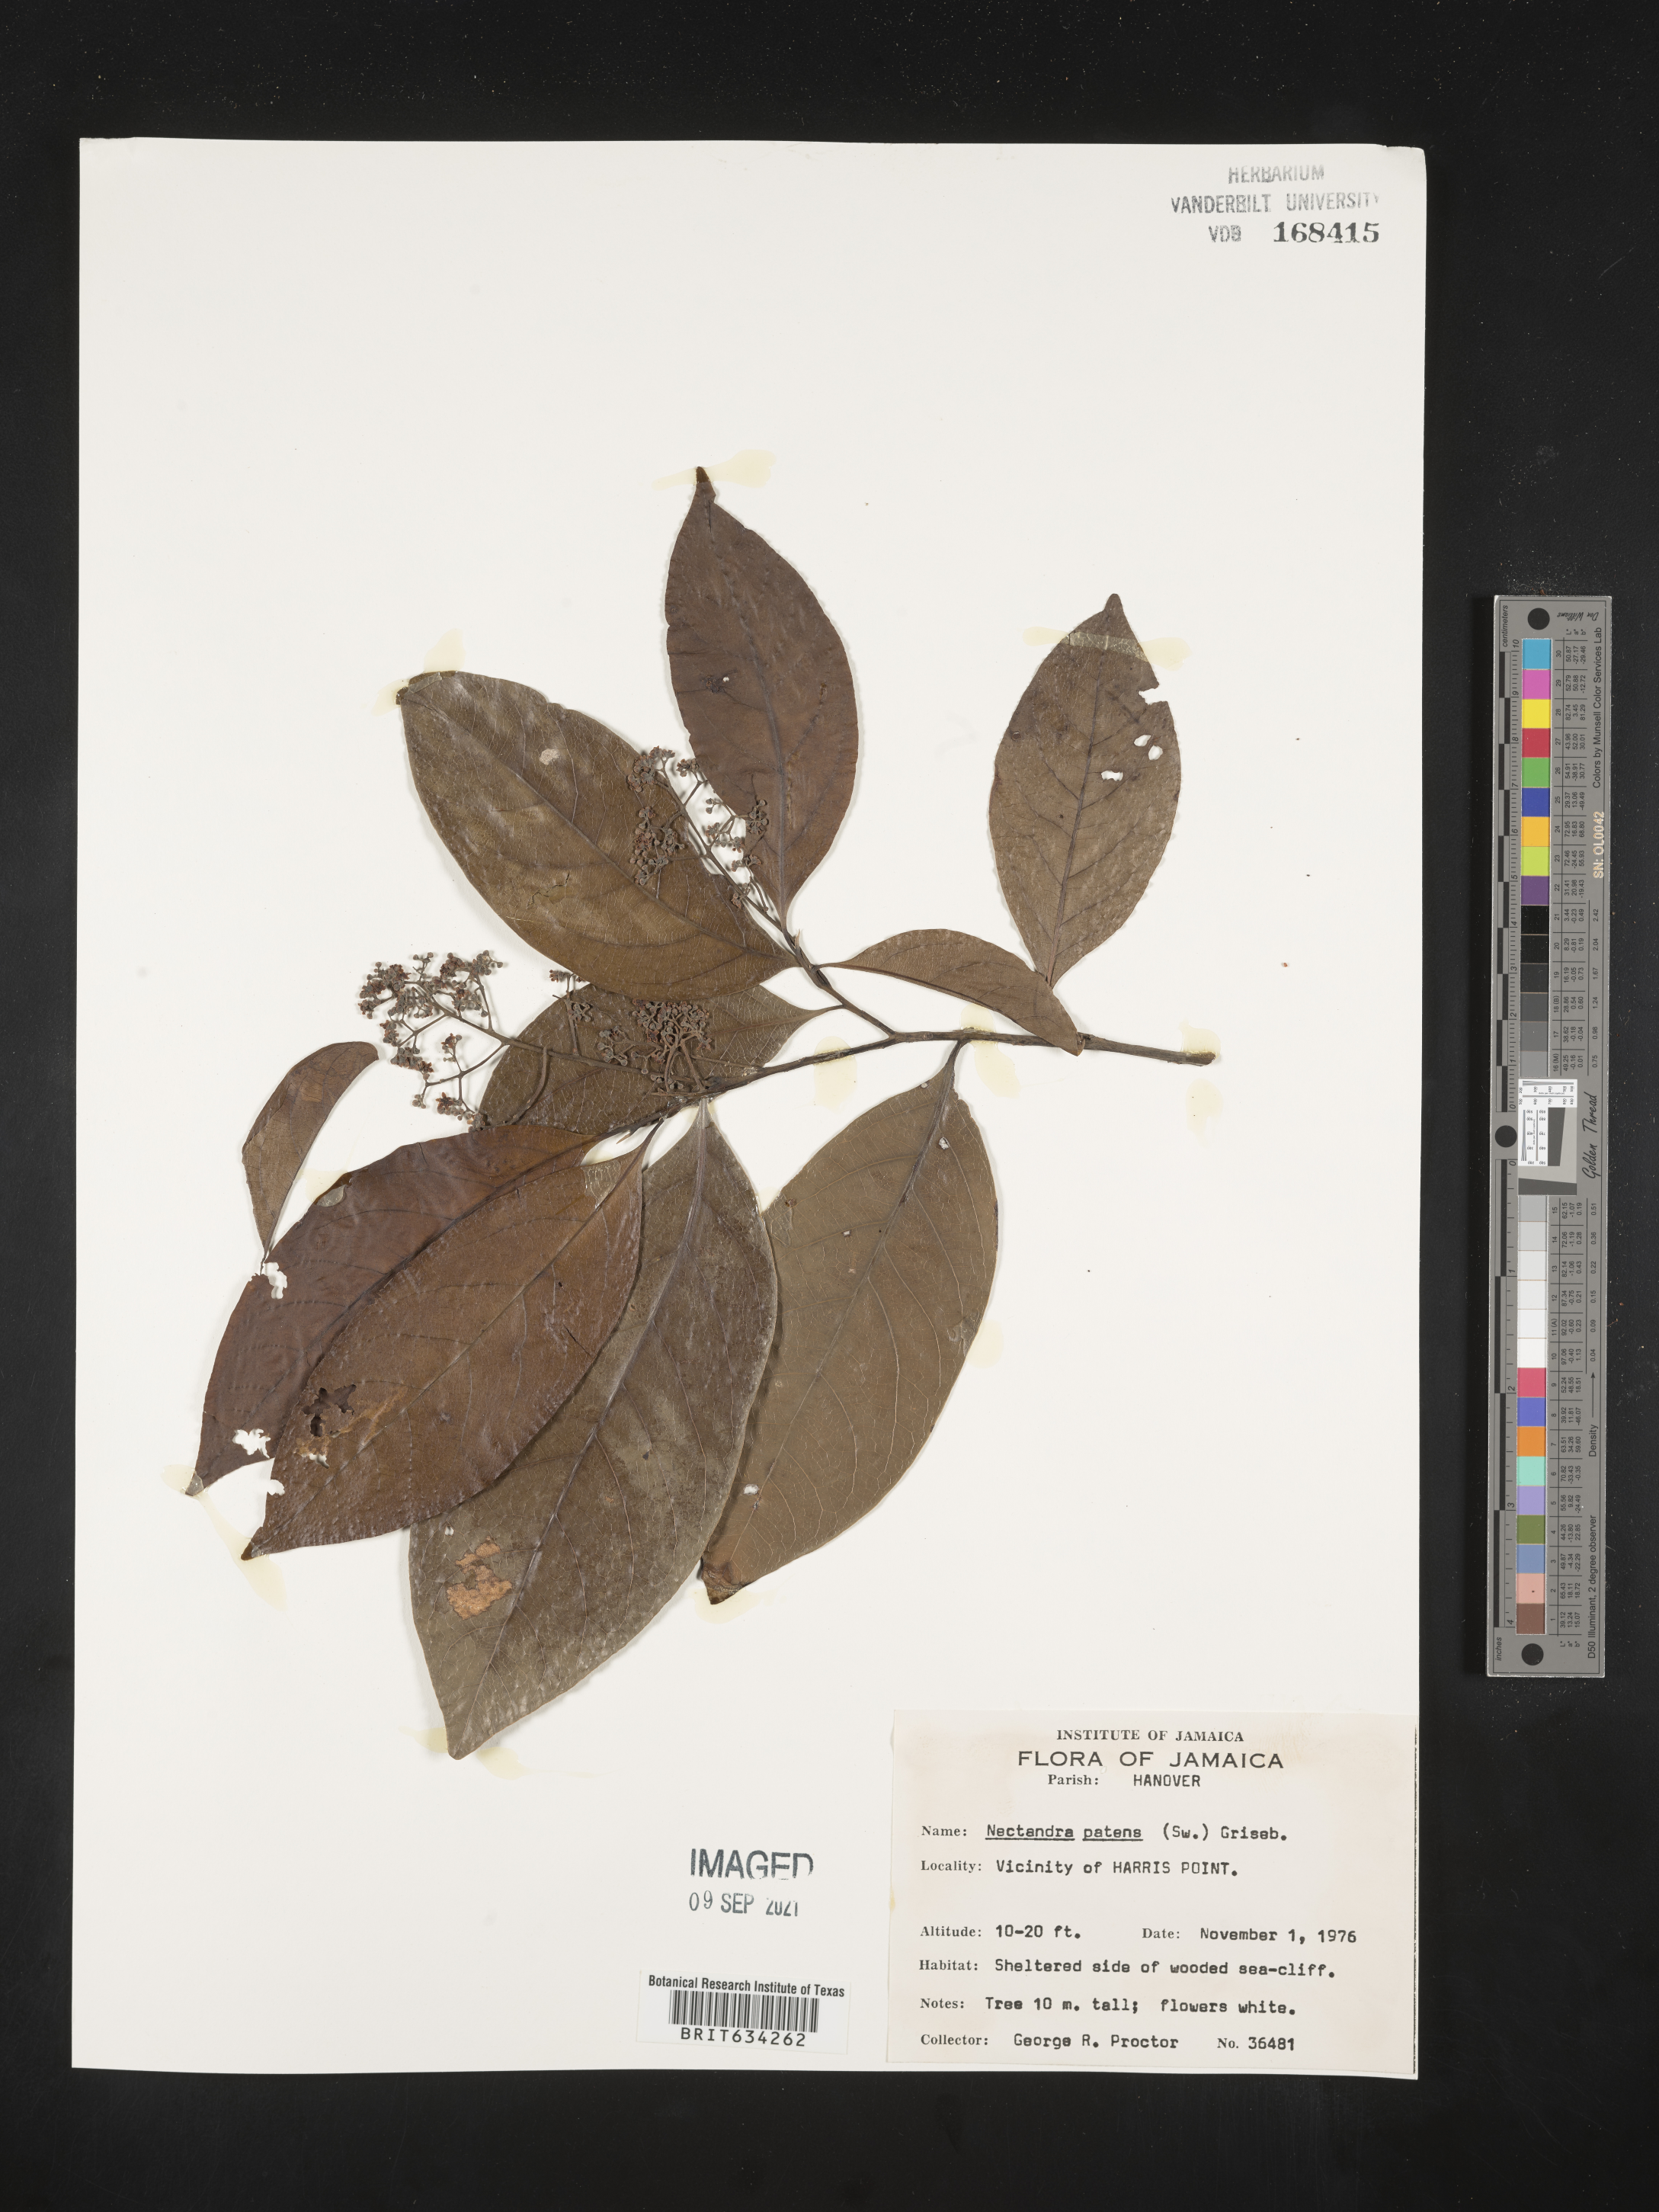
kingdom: Plantae
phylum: Tracheophyta
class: Magnoliopsida
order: Laurales
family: Lauraceae
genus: Nectandra
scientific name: Nectandra
